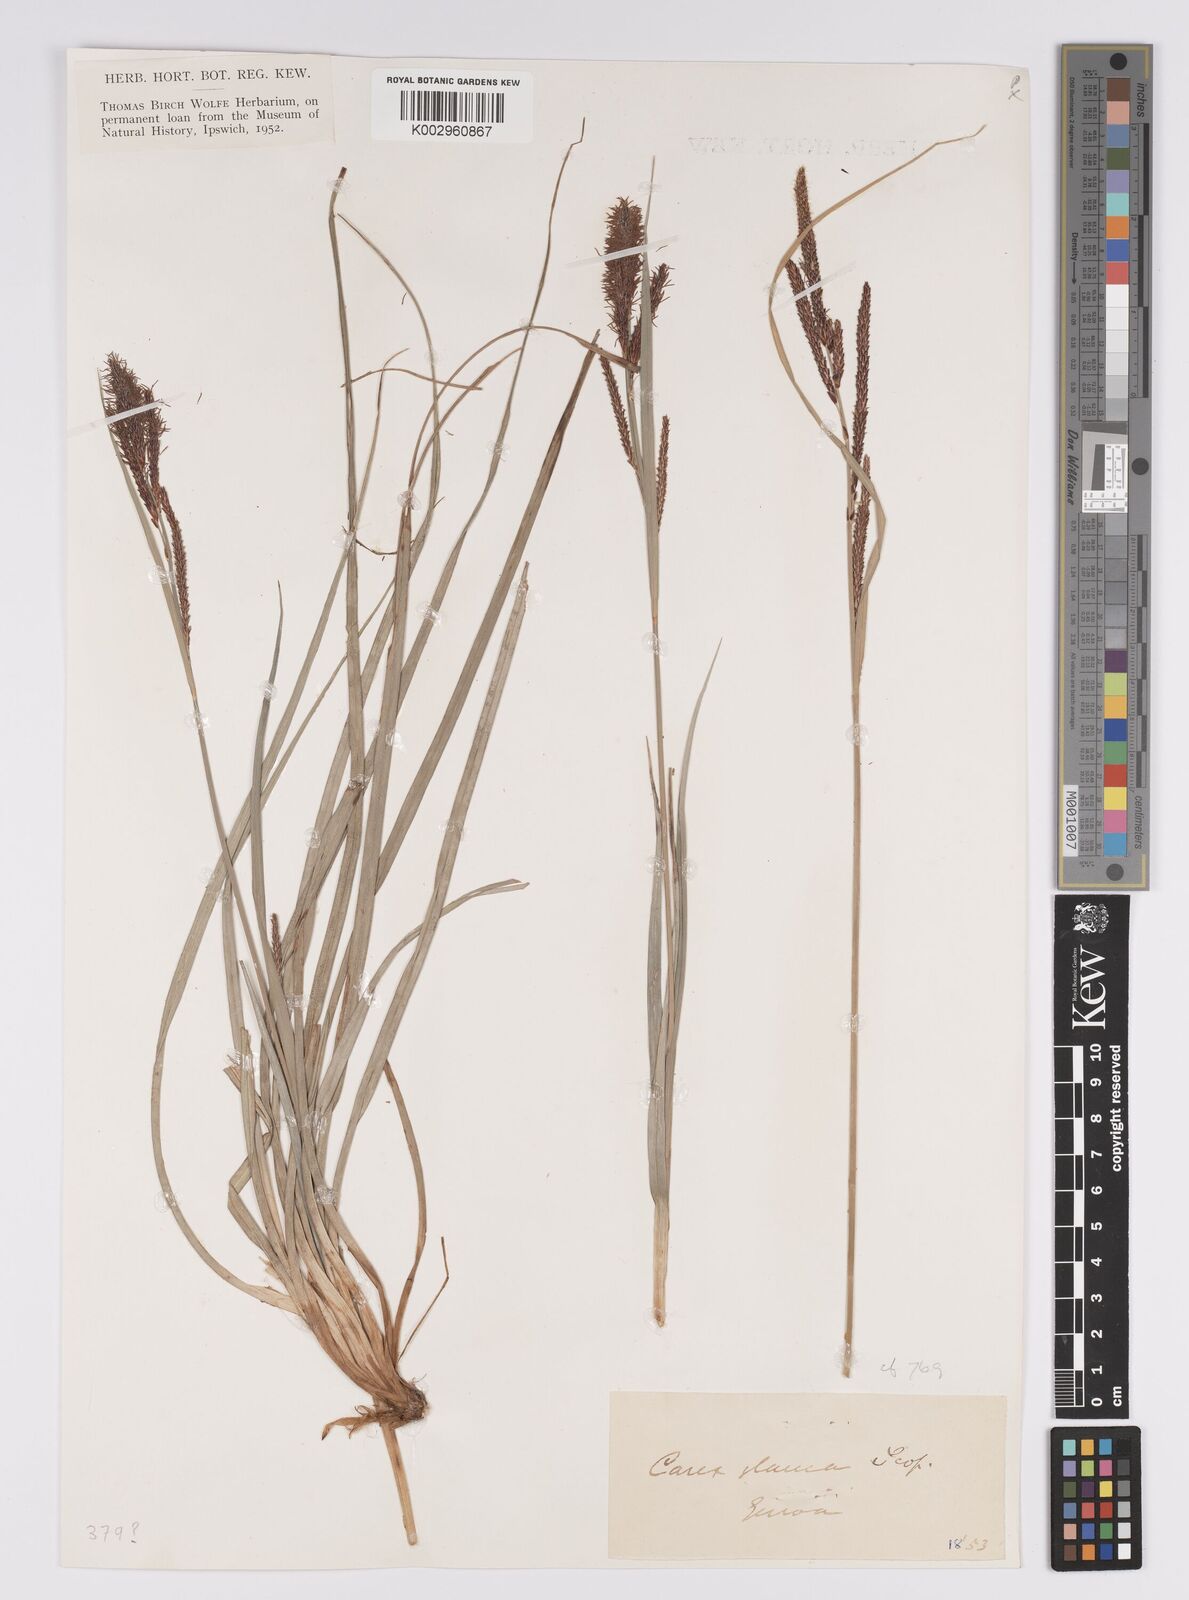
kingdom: Plantae
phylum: Tracheophyta
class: Liliopsida
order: Poales
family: Cyperaceae
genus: Carex
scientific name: Carex acutiformis
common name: Lesser pond-sedge
